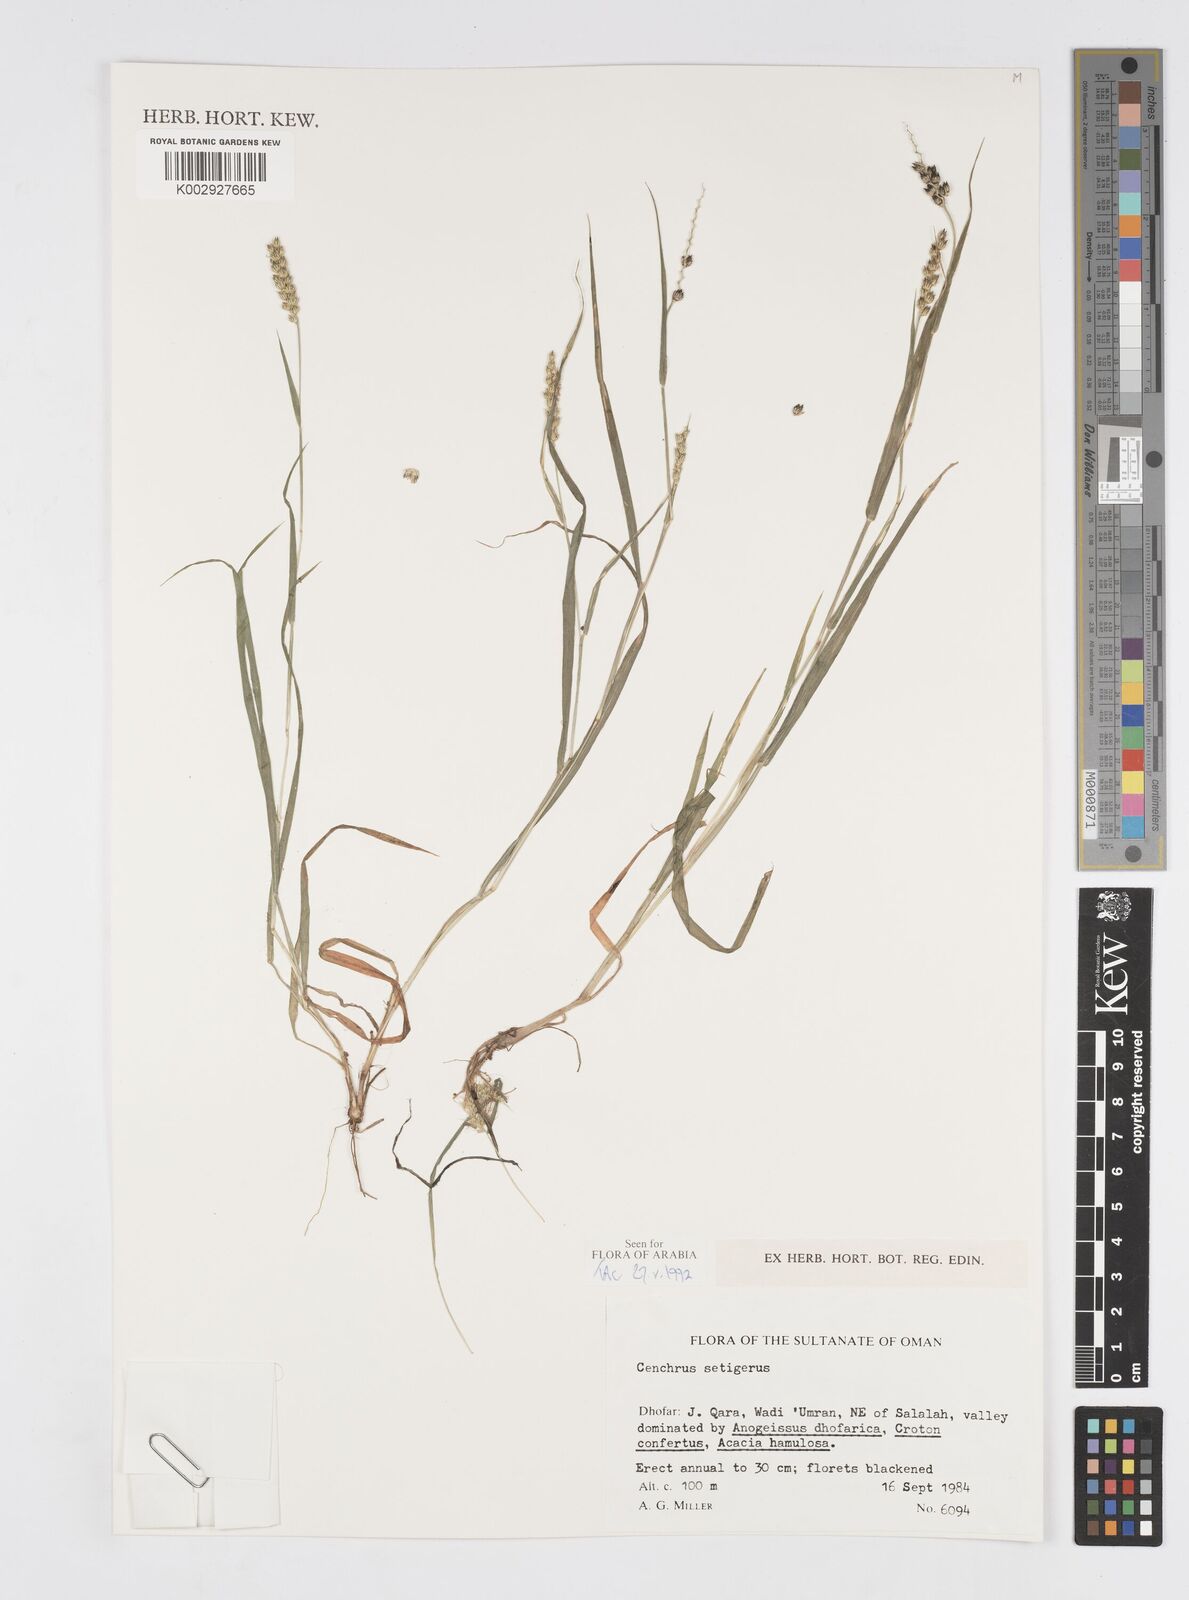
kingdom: Plantae
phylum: Tracheophyta
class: Liliopsida
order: Poales
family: Poaceae
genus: Cenchrus
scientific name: Cenchrus setigerus
